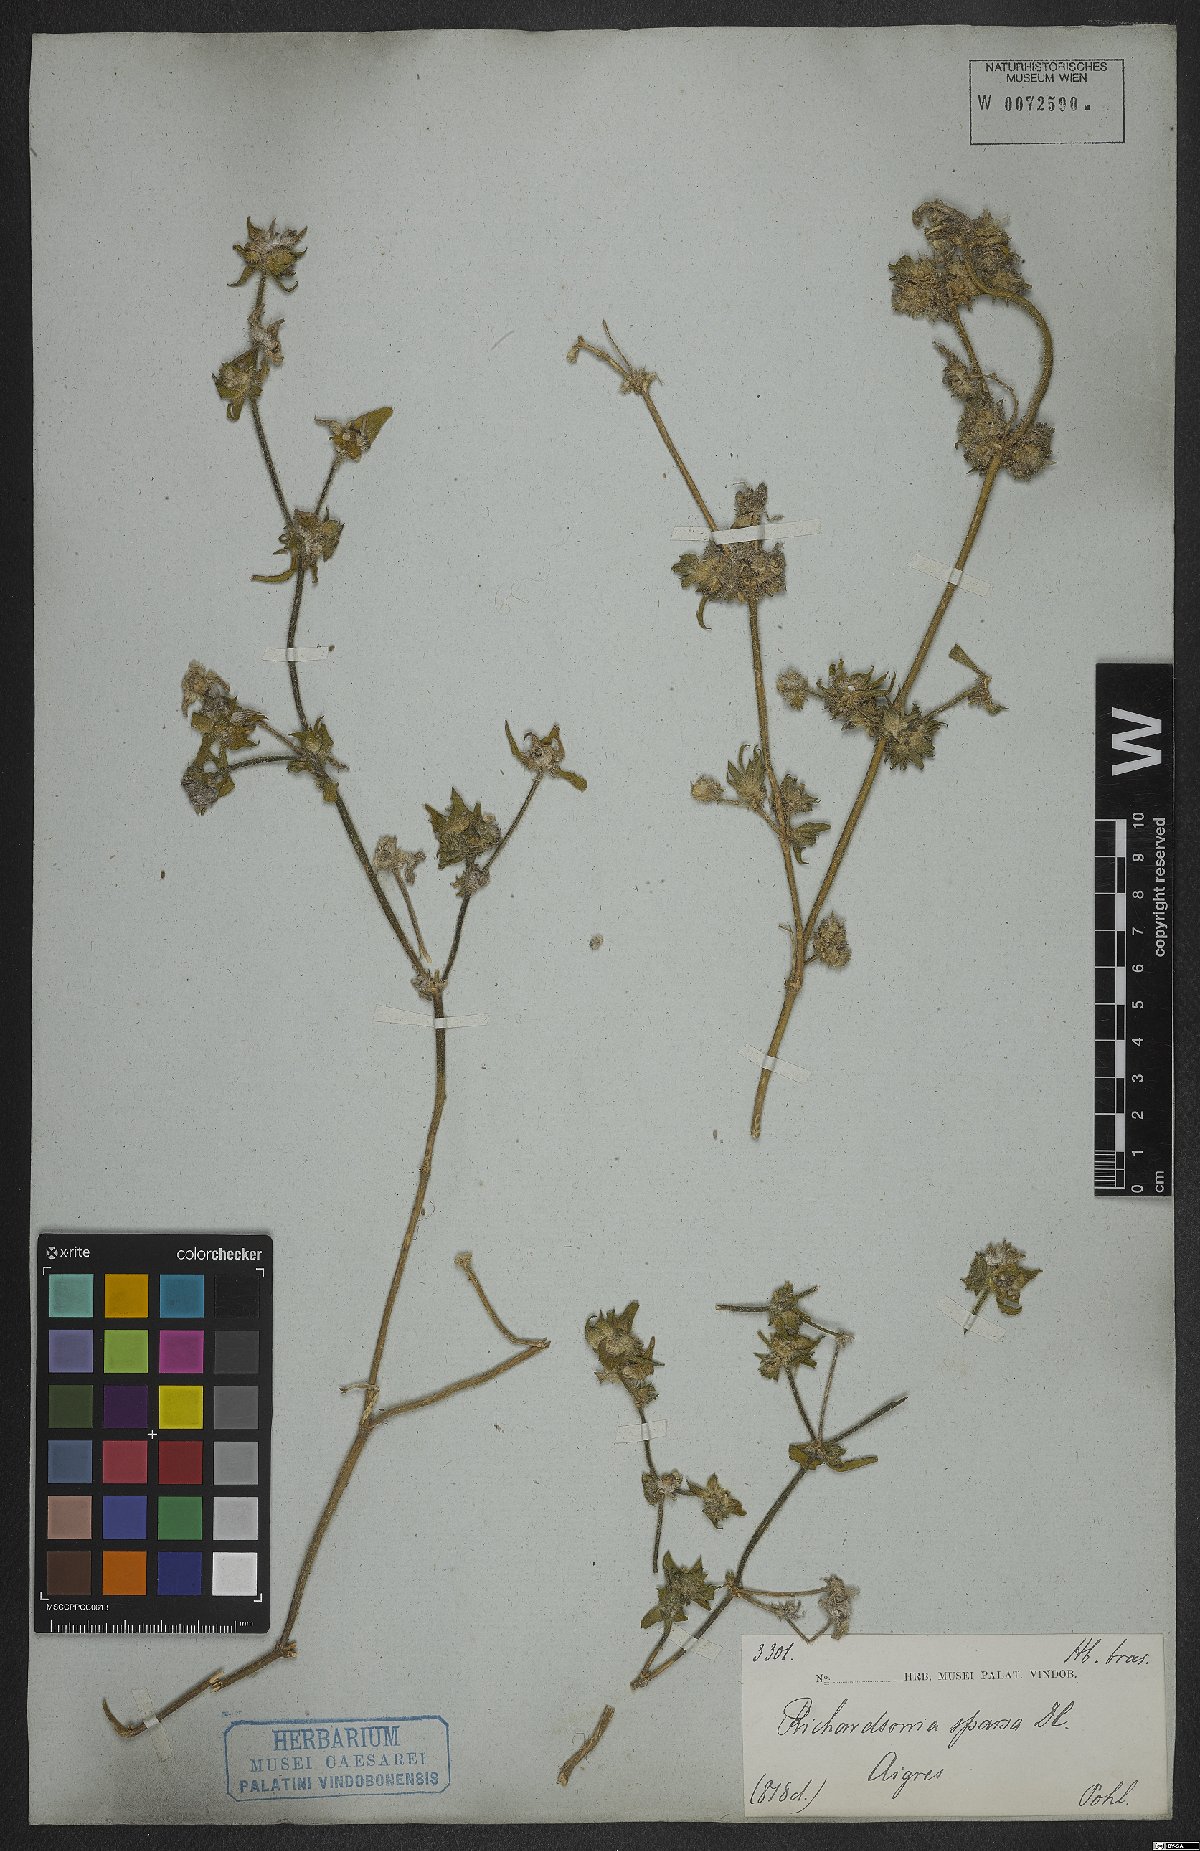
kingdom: Plantae
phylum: Tracheophyta
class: Magnoliopsida
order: Gentianales
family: Rubiaceae
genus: Richardia
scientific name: Richardia grandiflora
